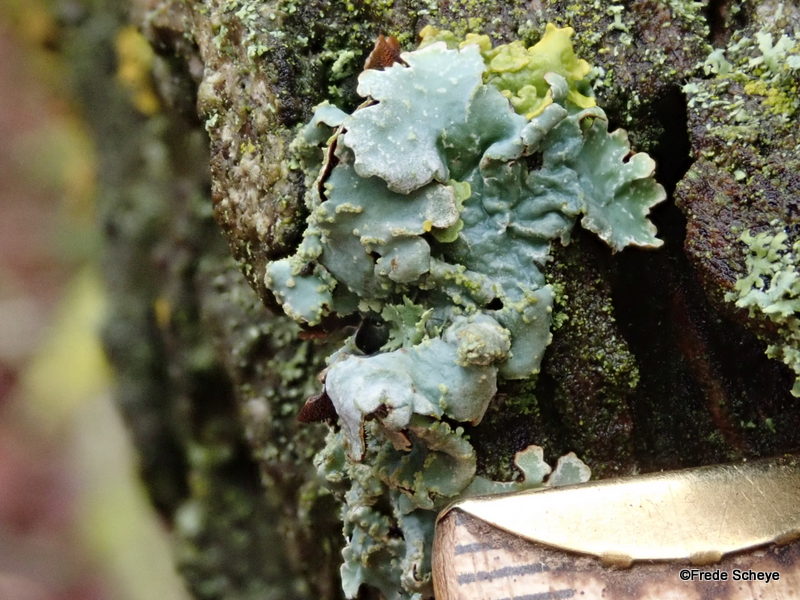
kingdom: Fungi
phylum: Ascomycota
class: Lecanoromycetes
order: Lecanorales
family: Parmeliaceae
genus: Parmelia
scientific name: Parmelia sulcata
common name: rynket skållav
